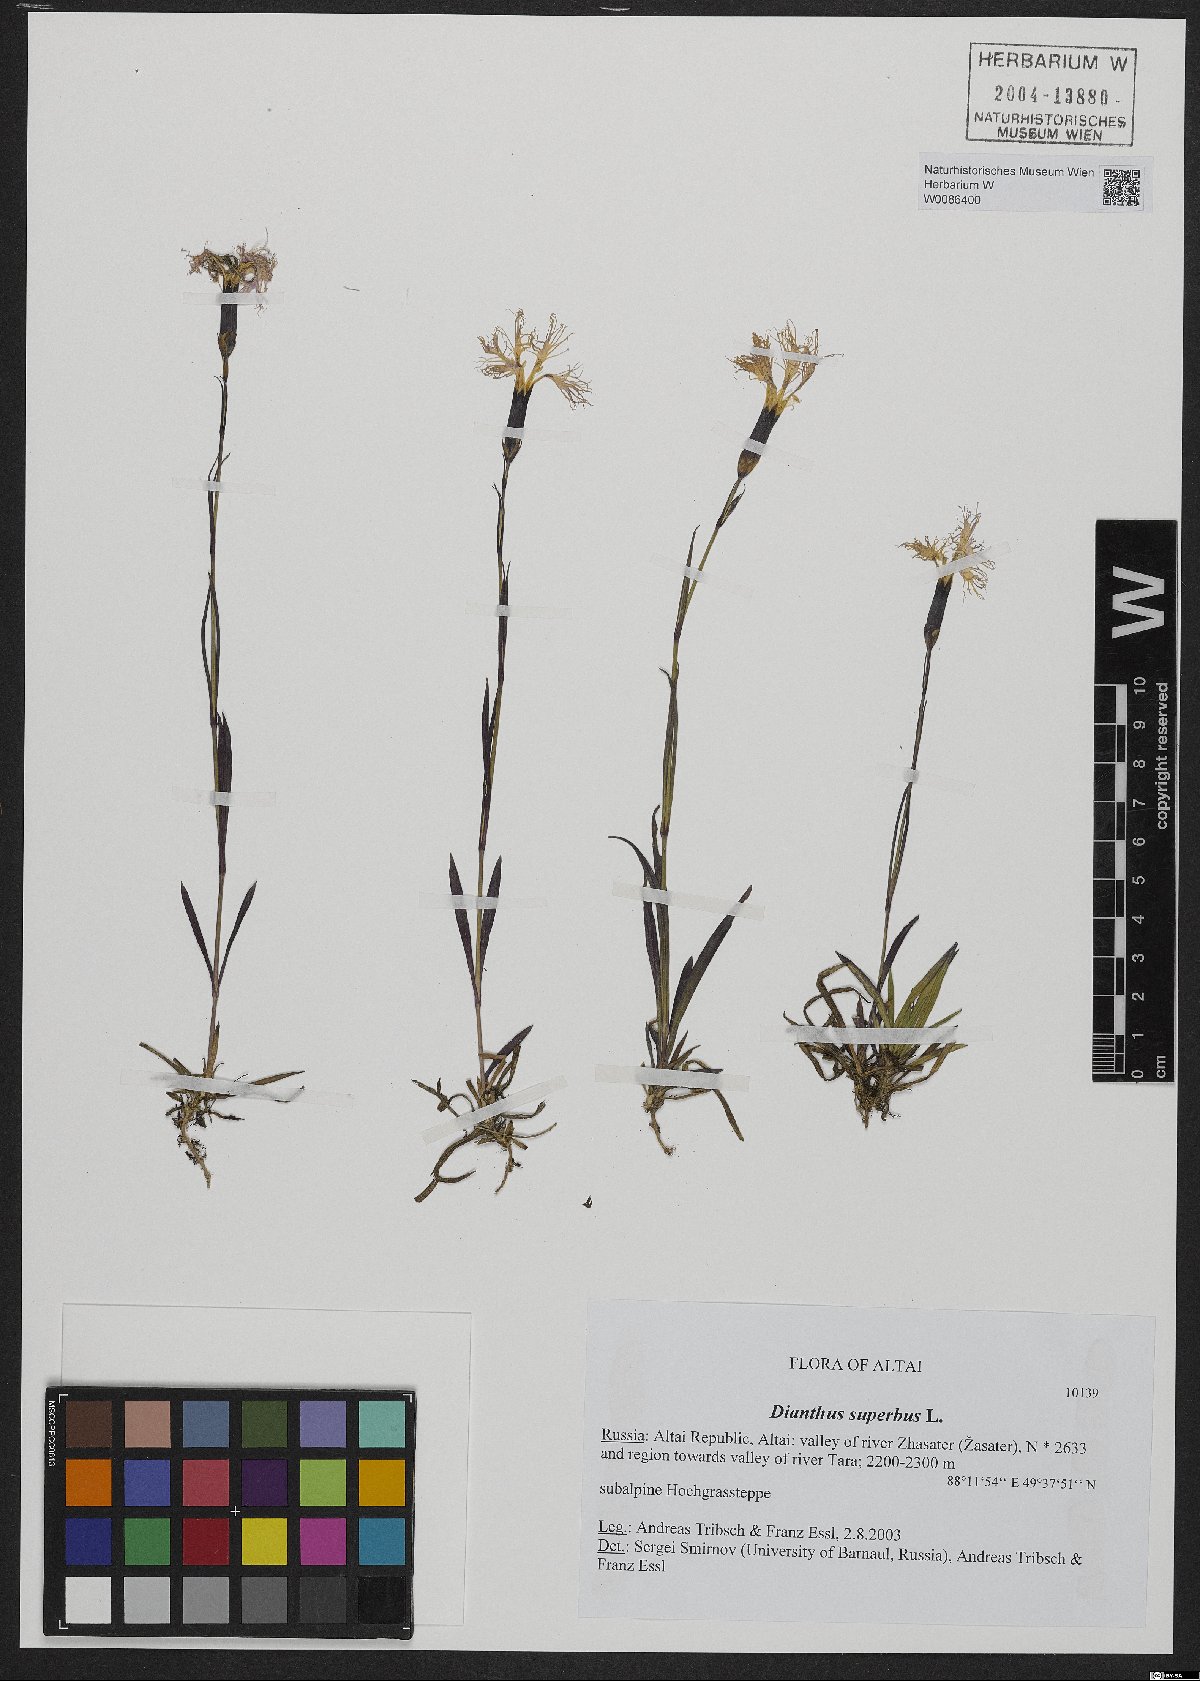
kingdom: Plantae
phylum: Tracheophyta
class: Magnoliopsida
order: Caryophyllales
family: Caryophyllaceae
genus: Dianthus
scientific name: Dianthus superbus
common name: Fringed pink
